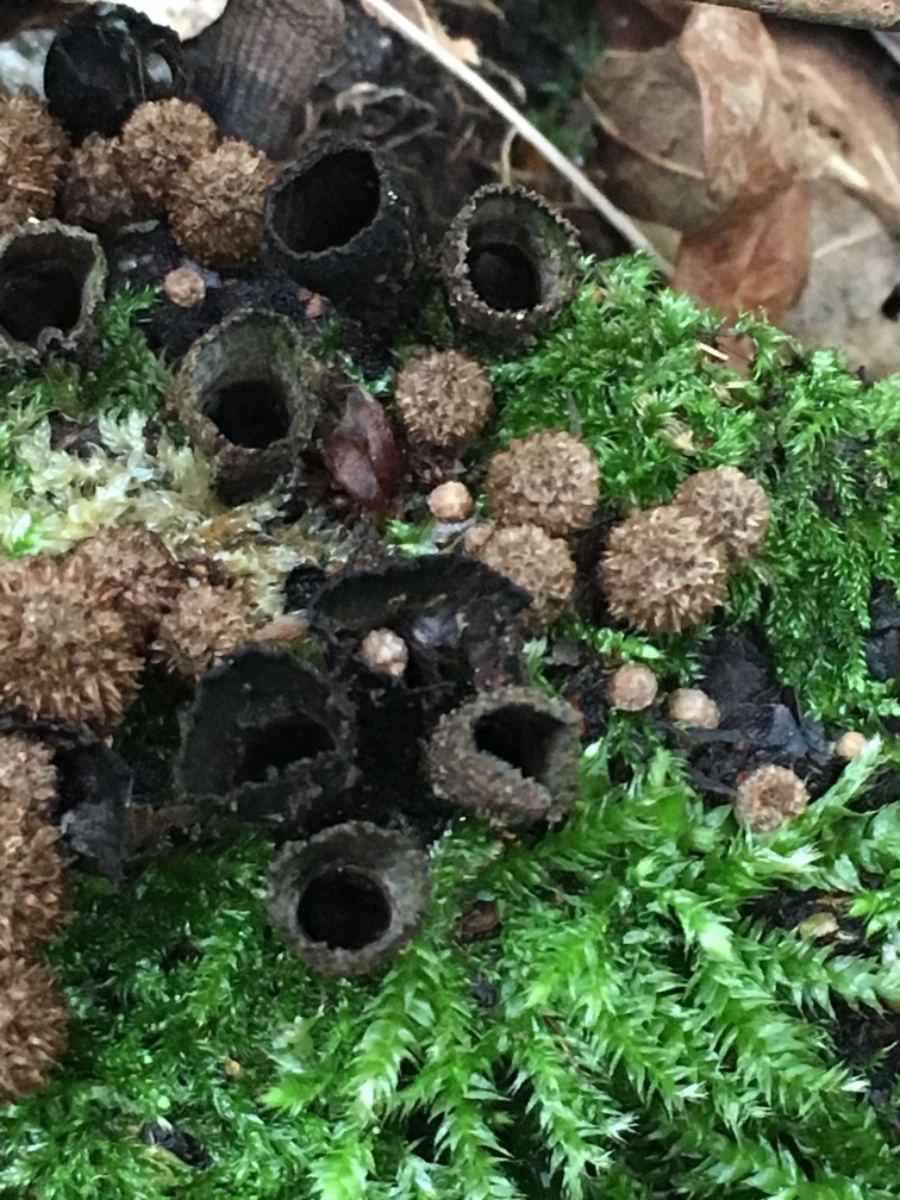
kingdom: Fungi
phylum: Basidiomycota
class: Agaricomycetes
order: Agaricales
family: Agaricaceae
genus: Cyathus
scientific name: Cyathus striatus
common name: stribet redesvamp
